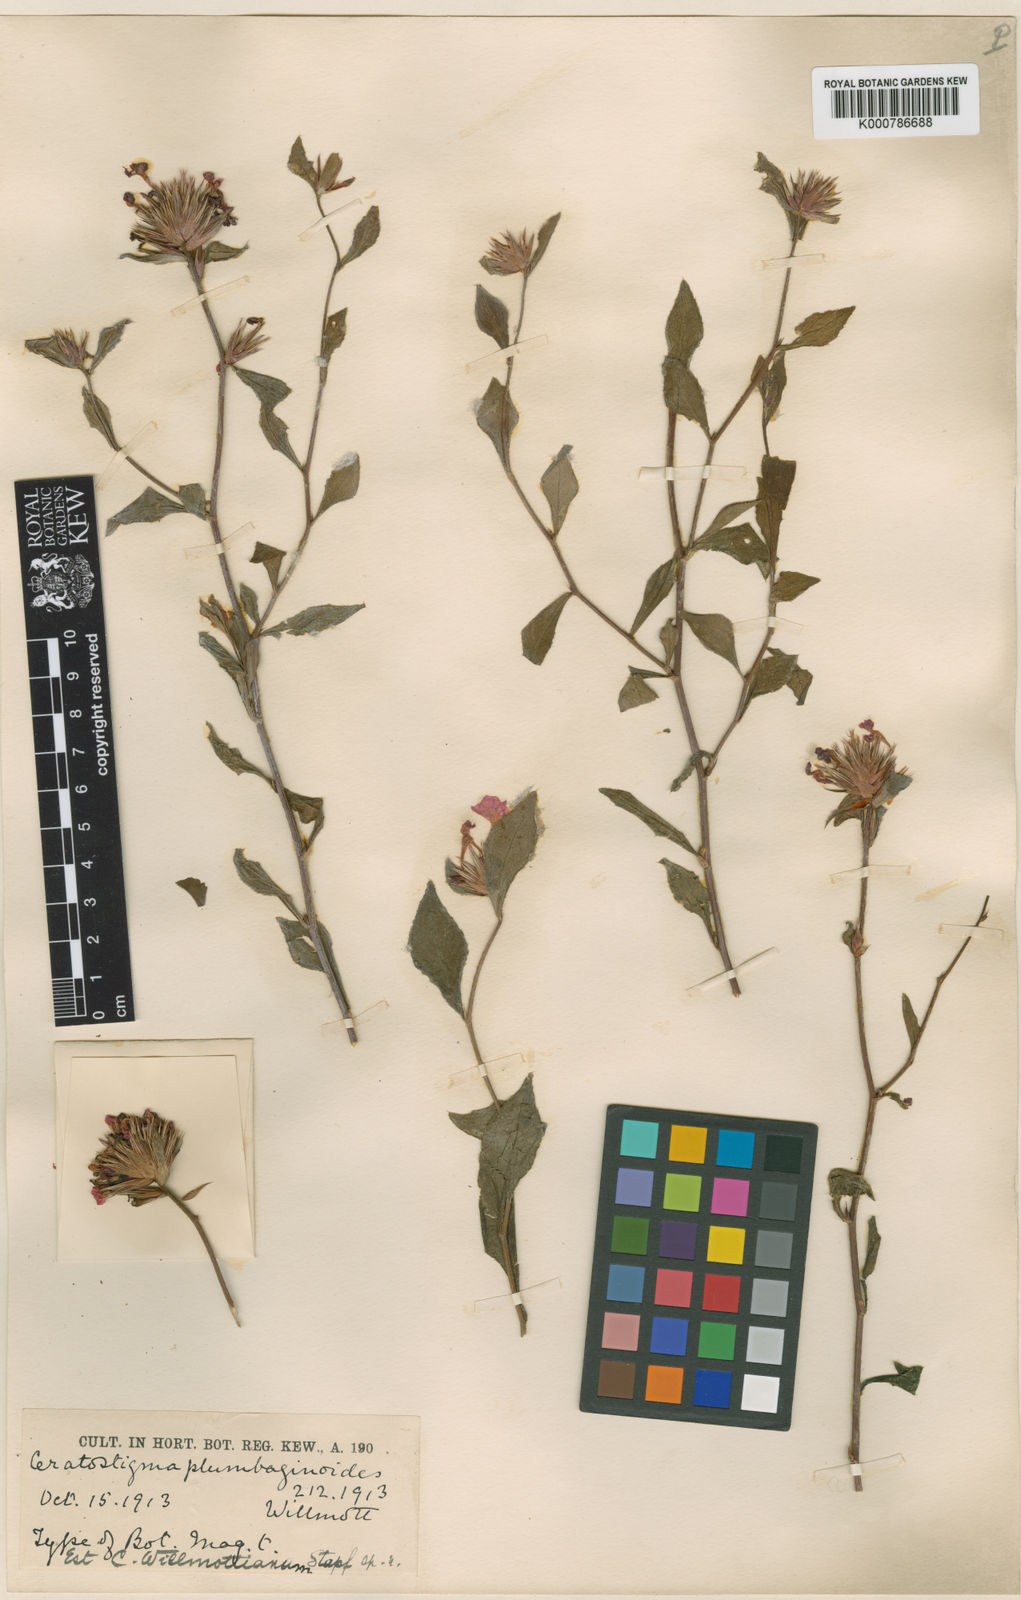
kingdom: Plantae
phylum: Tracheophyta
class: Magnoliopsida
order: Caryophyllales
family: Plumbaginaceae
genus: Ceratostigma
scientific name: Ceratostigma willmottianum
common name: Chinese-plumbago
